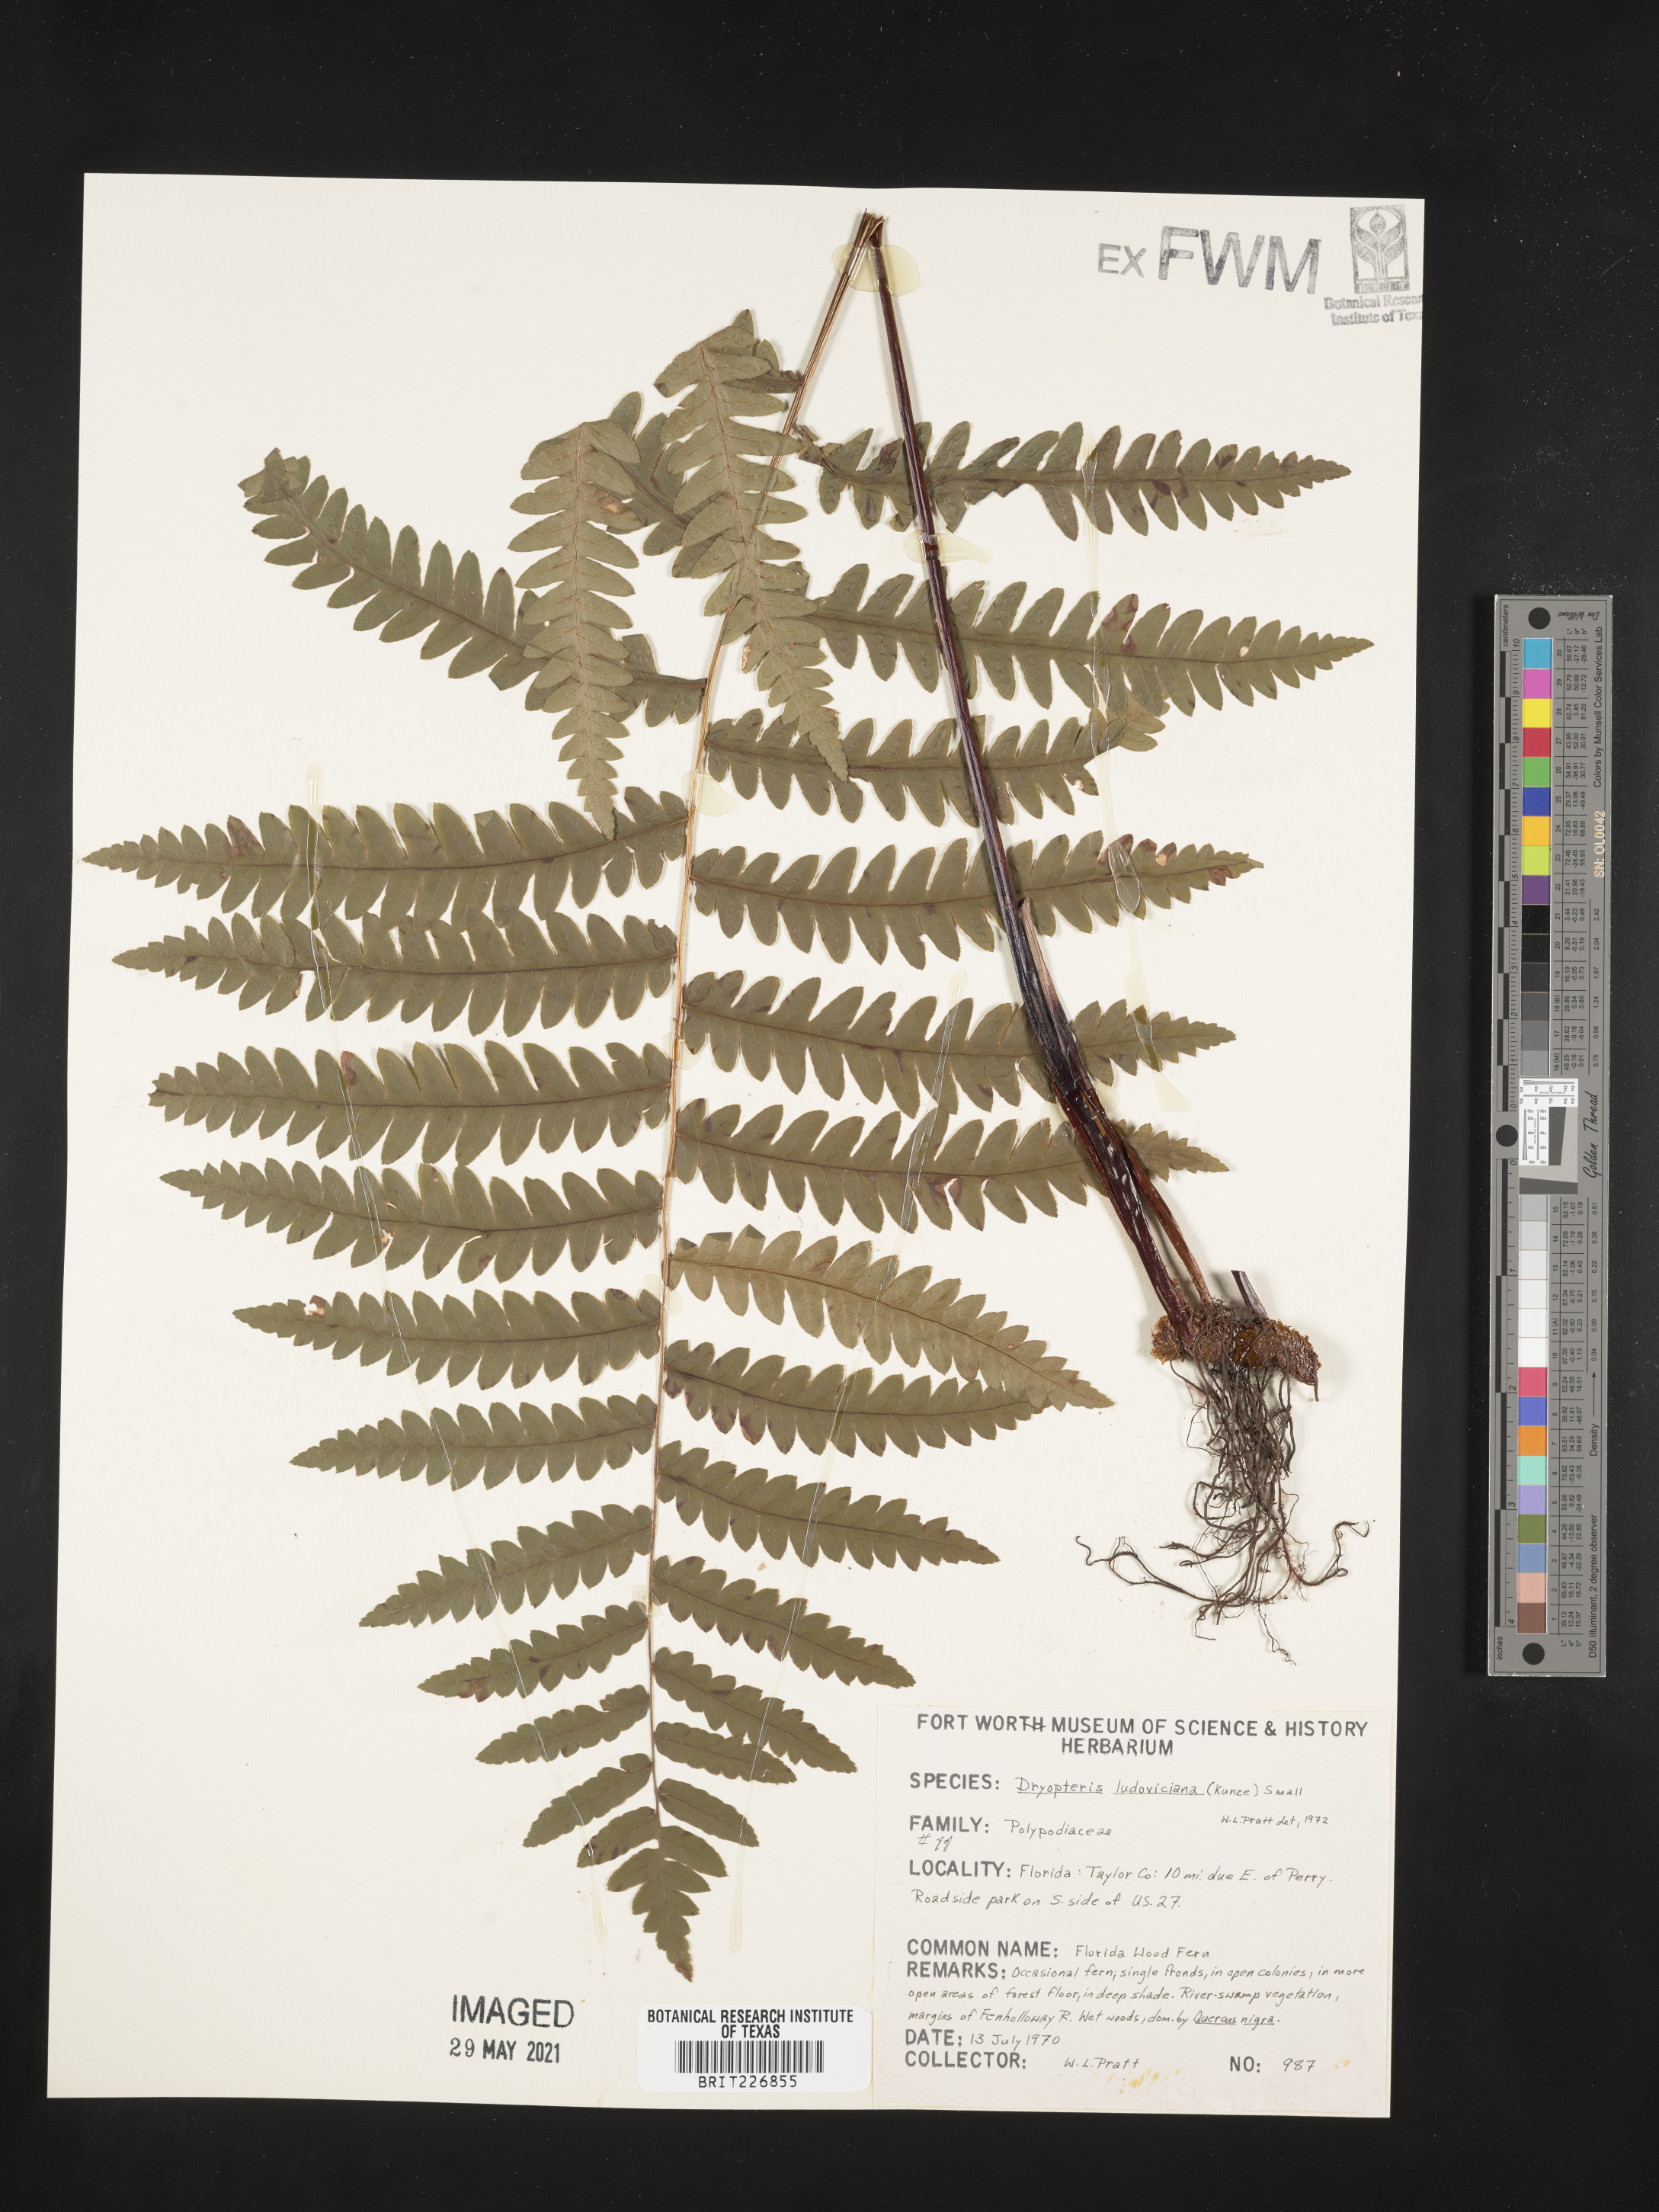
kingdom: Plantae
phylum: Tracheophyta
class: Polypodiopsida
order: Polypodiales
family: Dryopteridaceae
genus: Dryopteris
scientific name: Dryopteris ludoviciana
